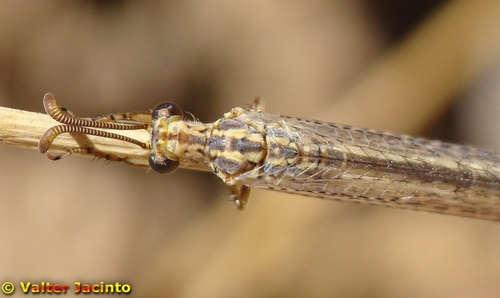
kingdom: Animalia
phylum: Arthropoda
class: Insecta
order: Neuroptera
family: Myrmeleontidae
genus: Macronemurus
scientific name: Macronemurus appendiculatus
